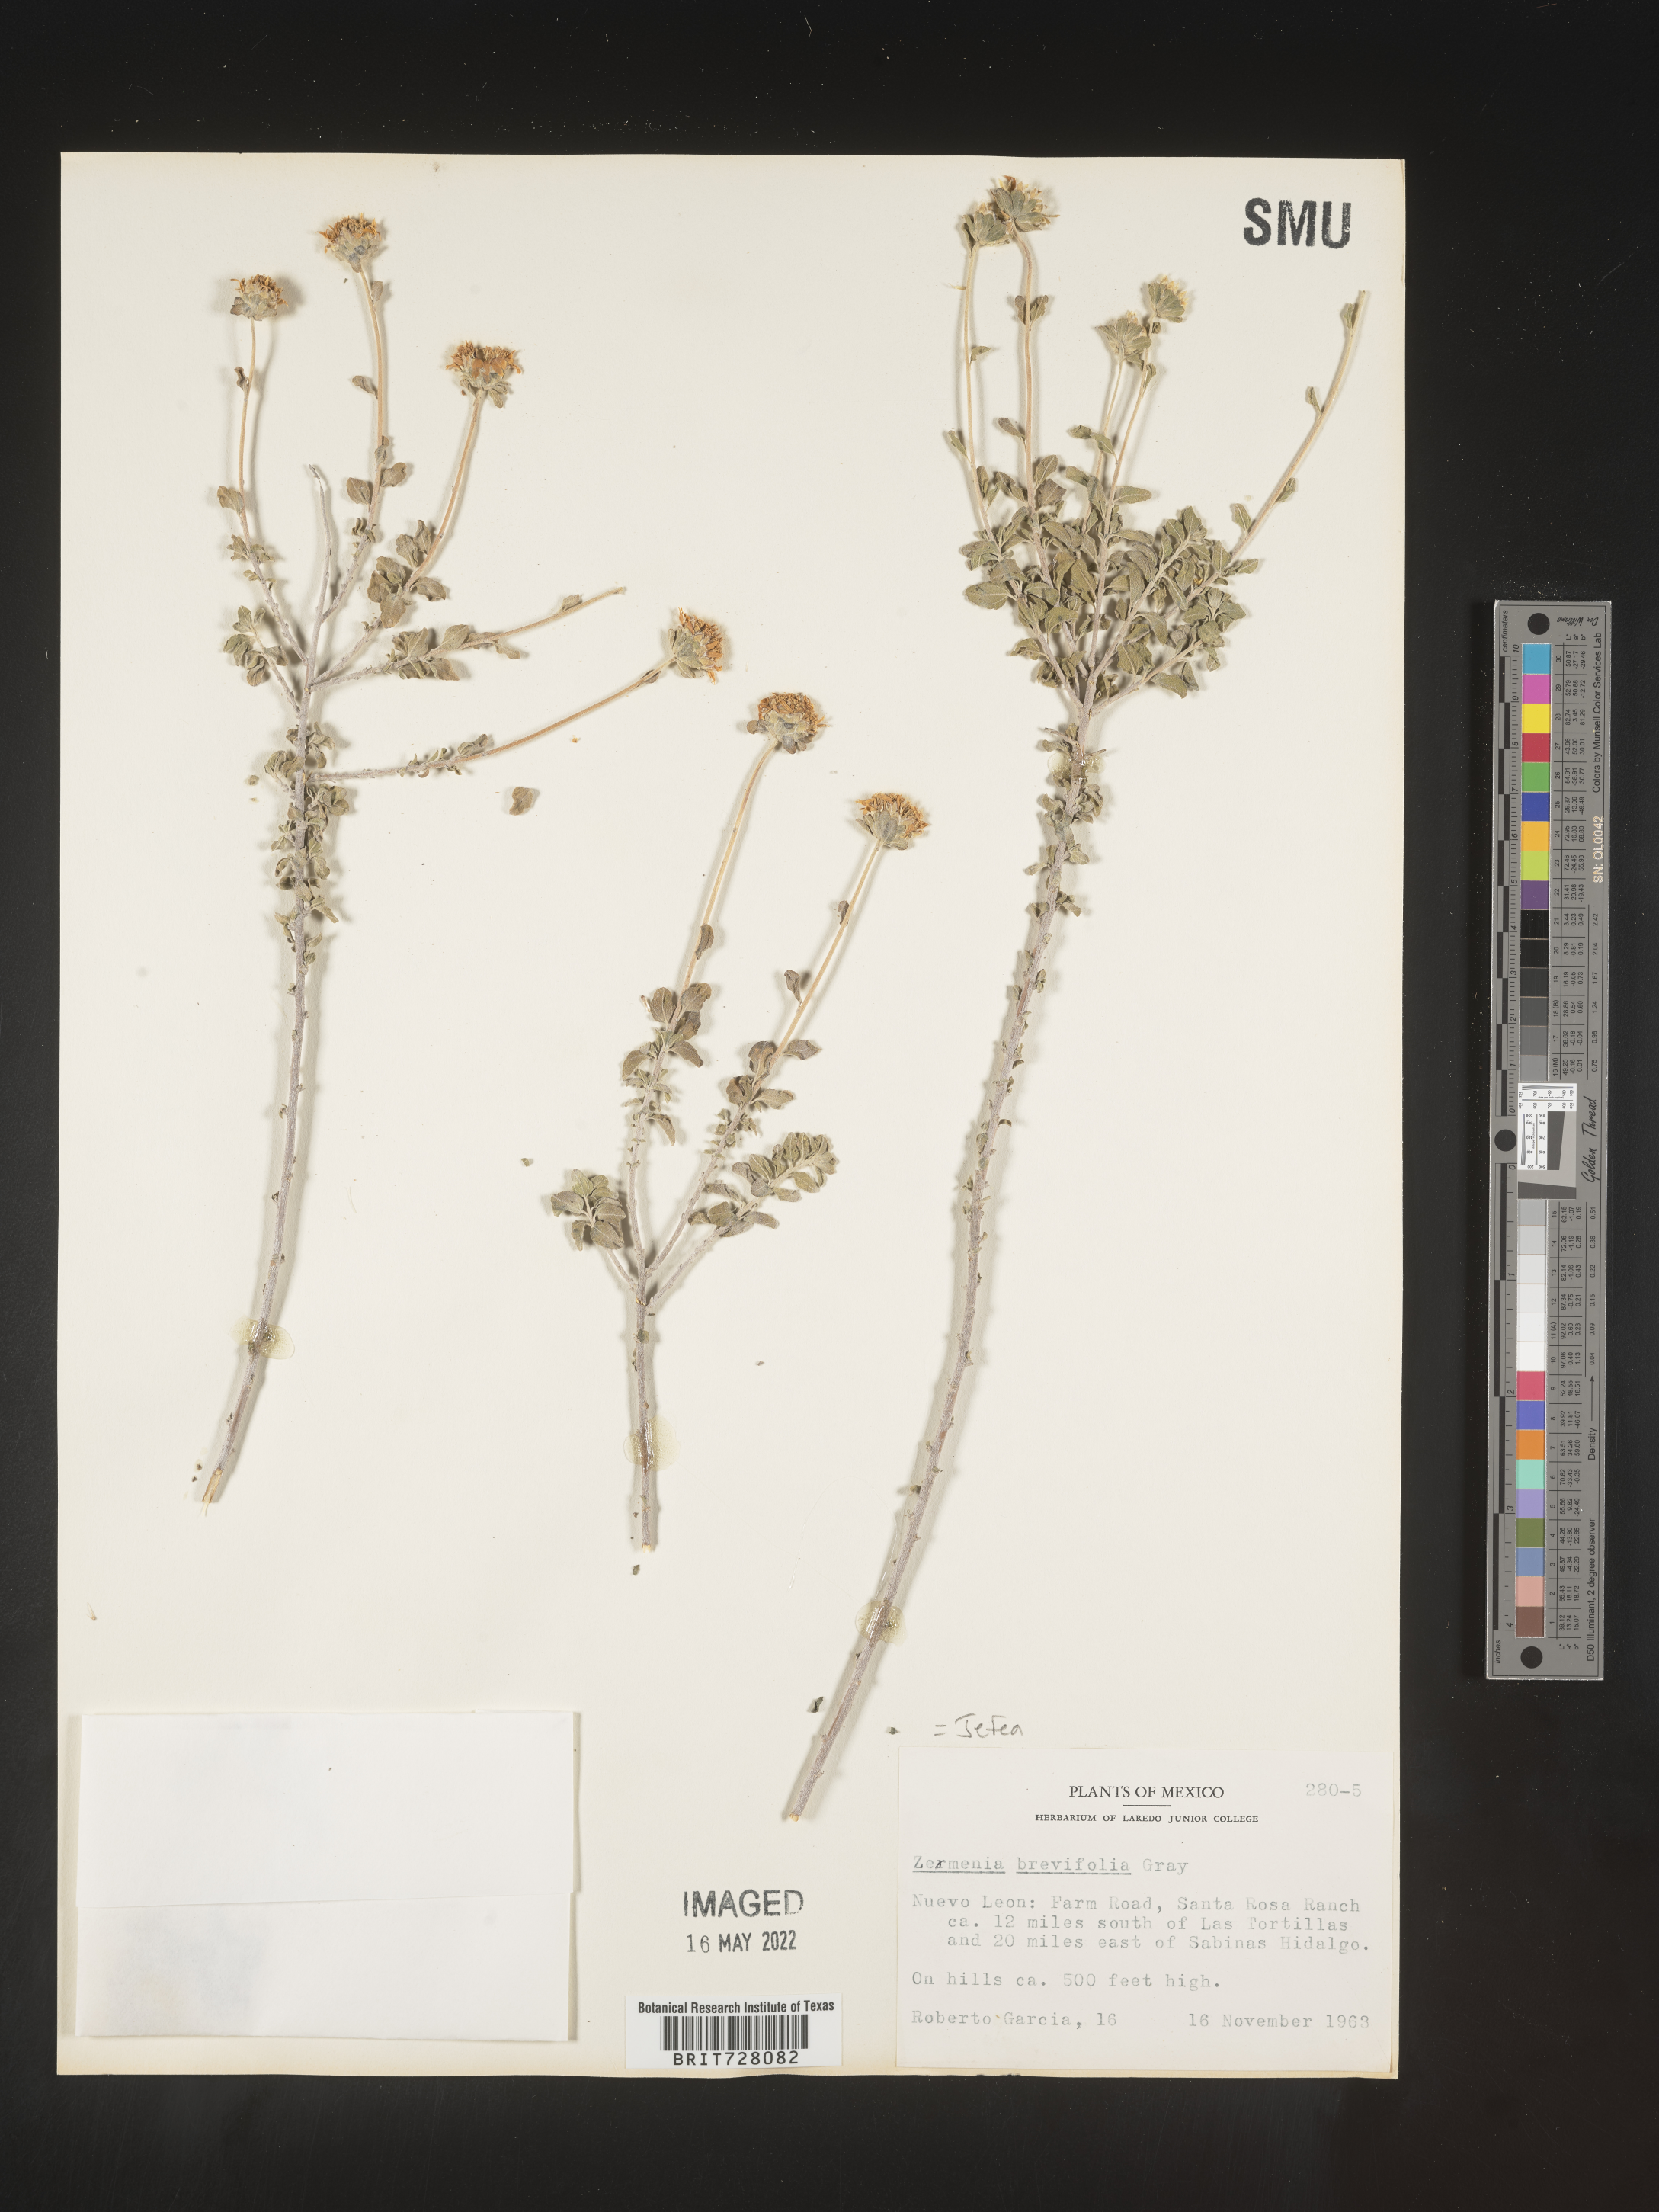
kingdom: Plantae
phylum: Tracheophyta
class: Magnoliopsida
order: Asterales
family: Asteraceae
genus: Jefea
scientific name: Jefea brevifolia
